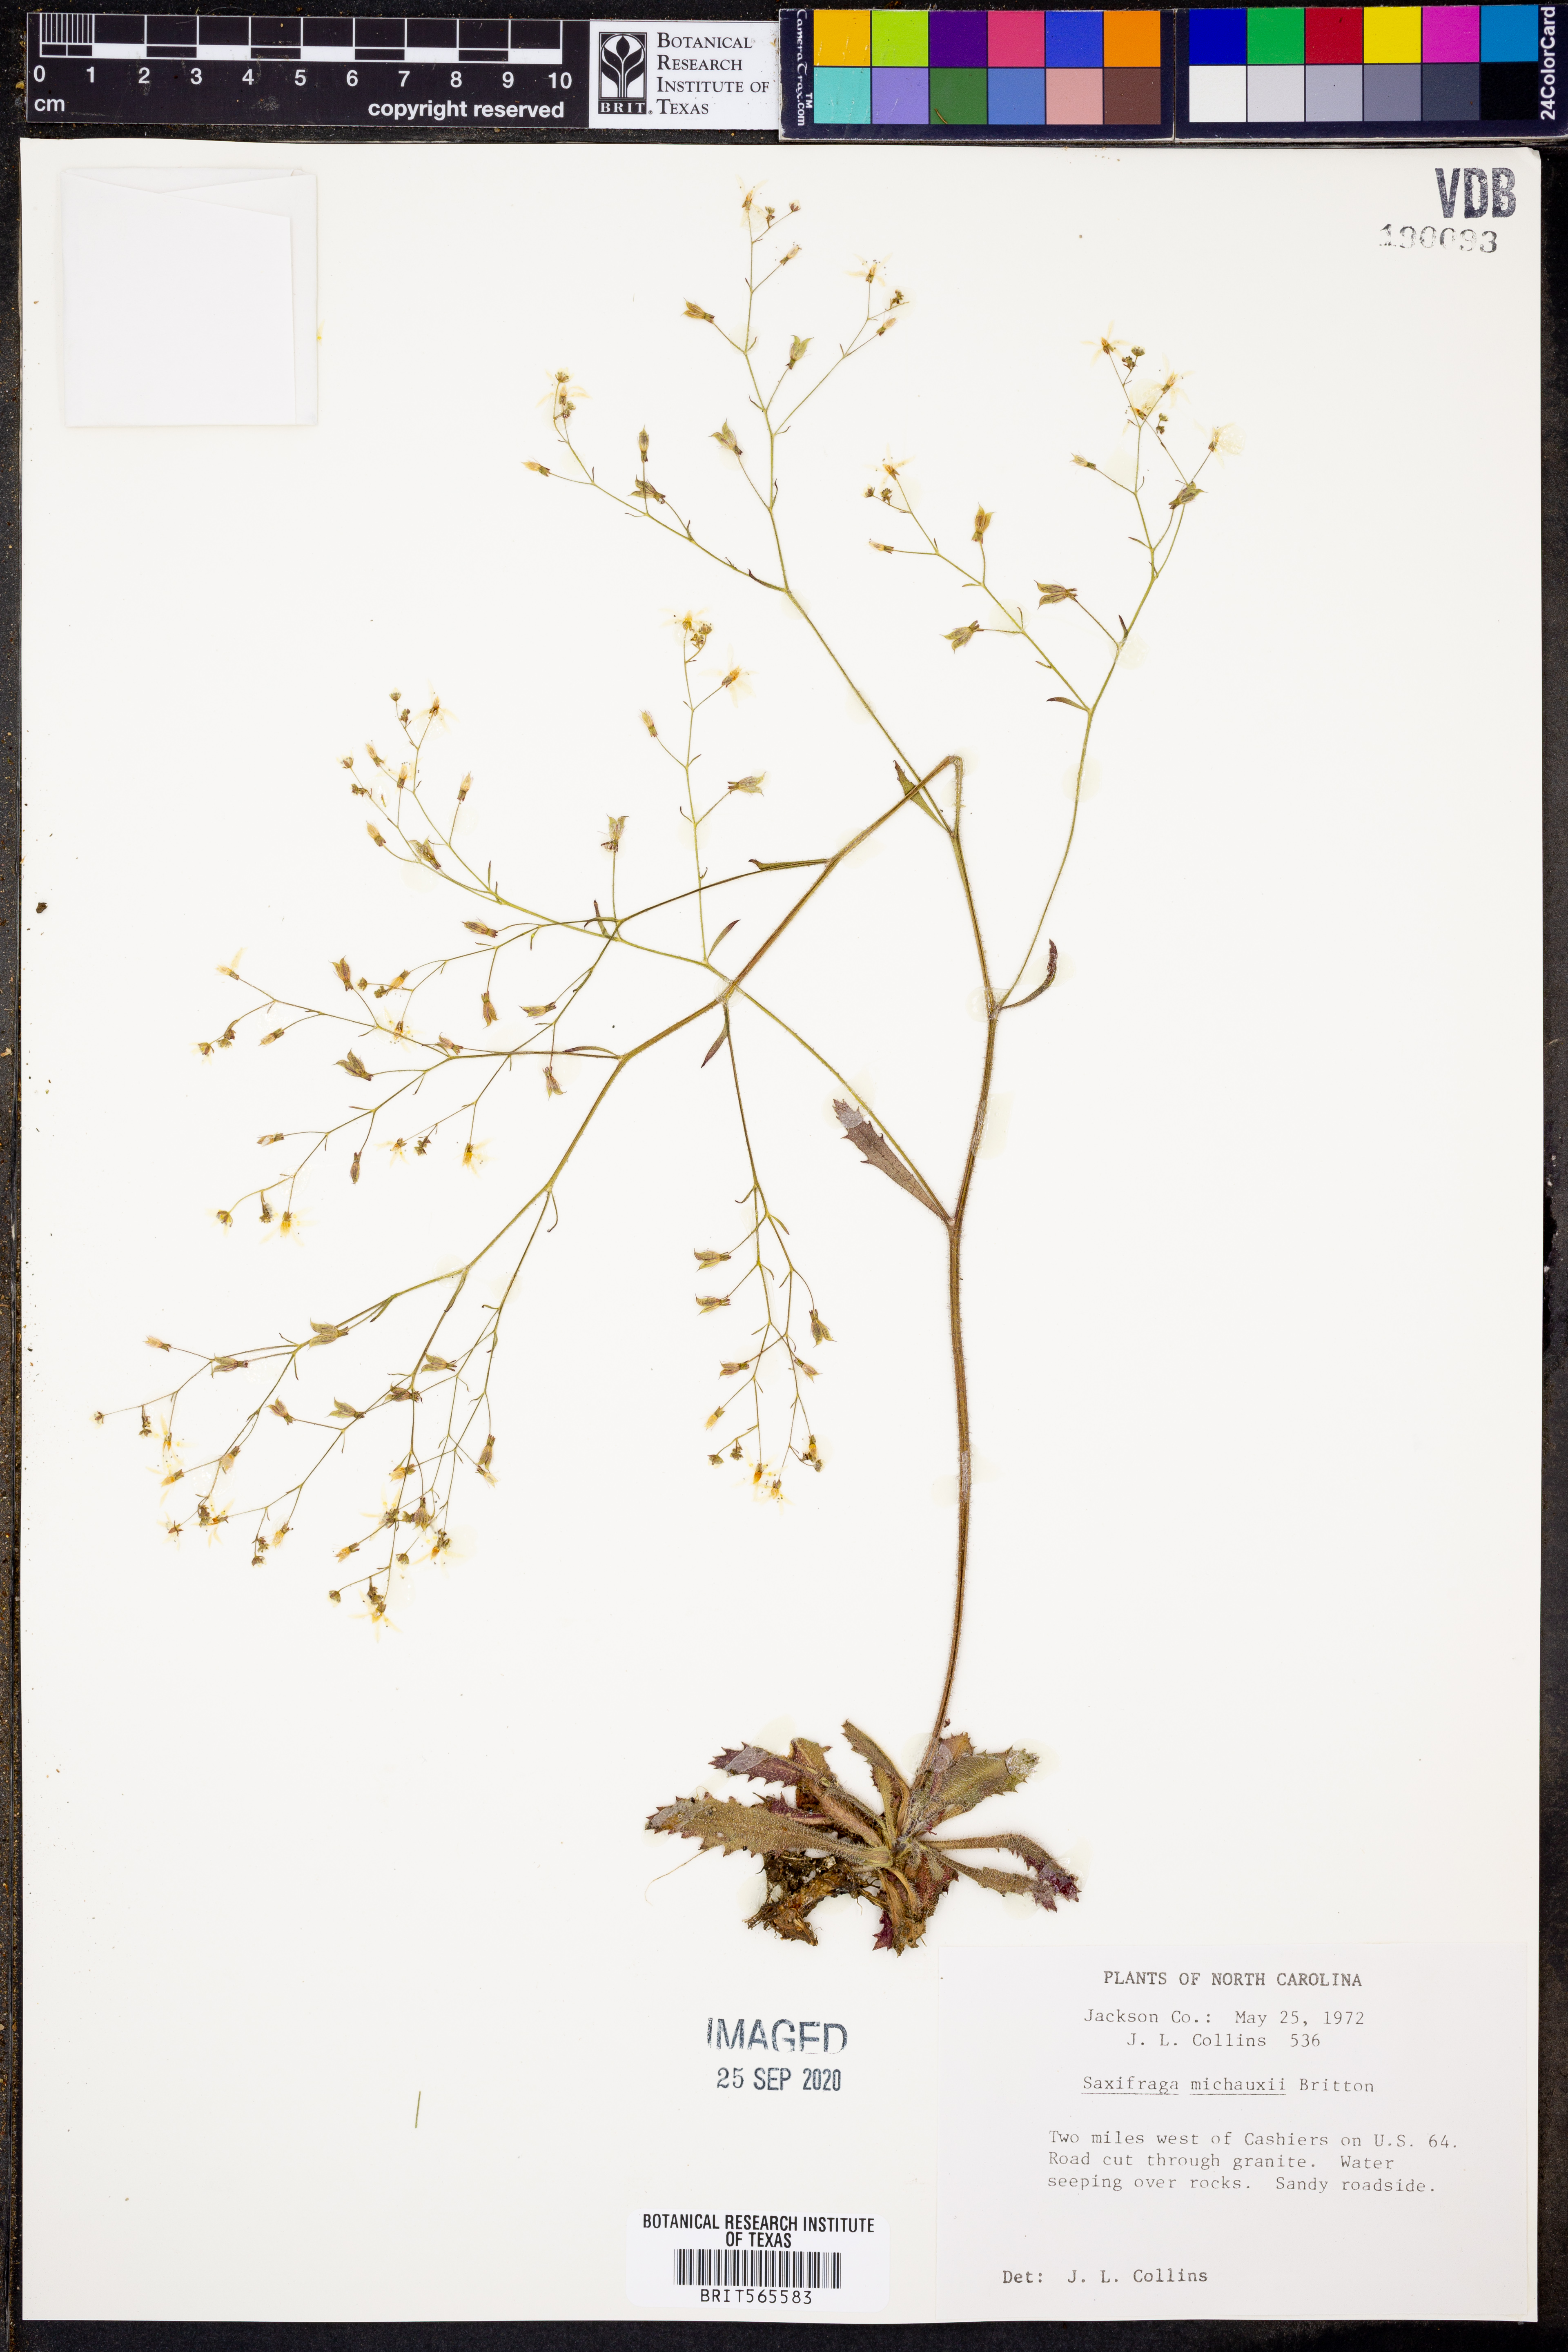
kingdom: Plantae
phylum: Tracheophyta
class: Magnoliopsida
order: Saxifragales
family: Saxifragaceae
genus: Micranthes
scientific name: Micranthes petiolaris
